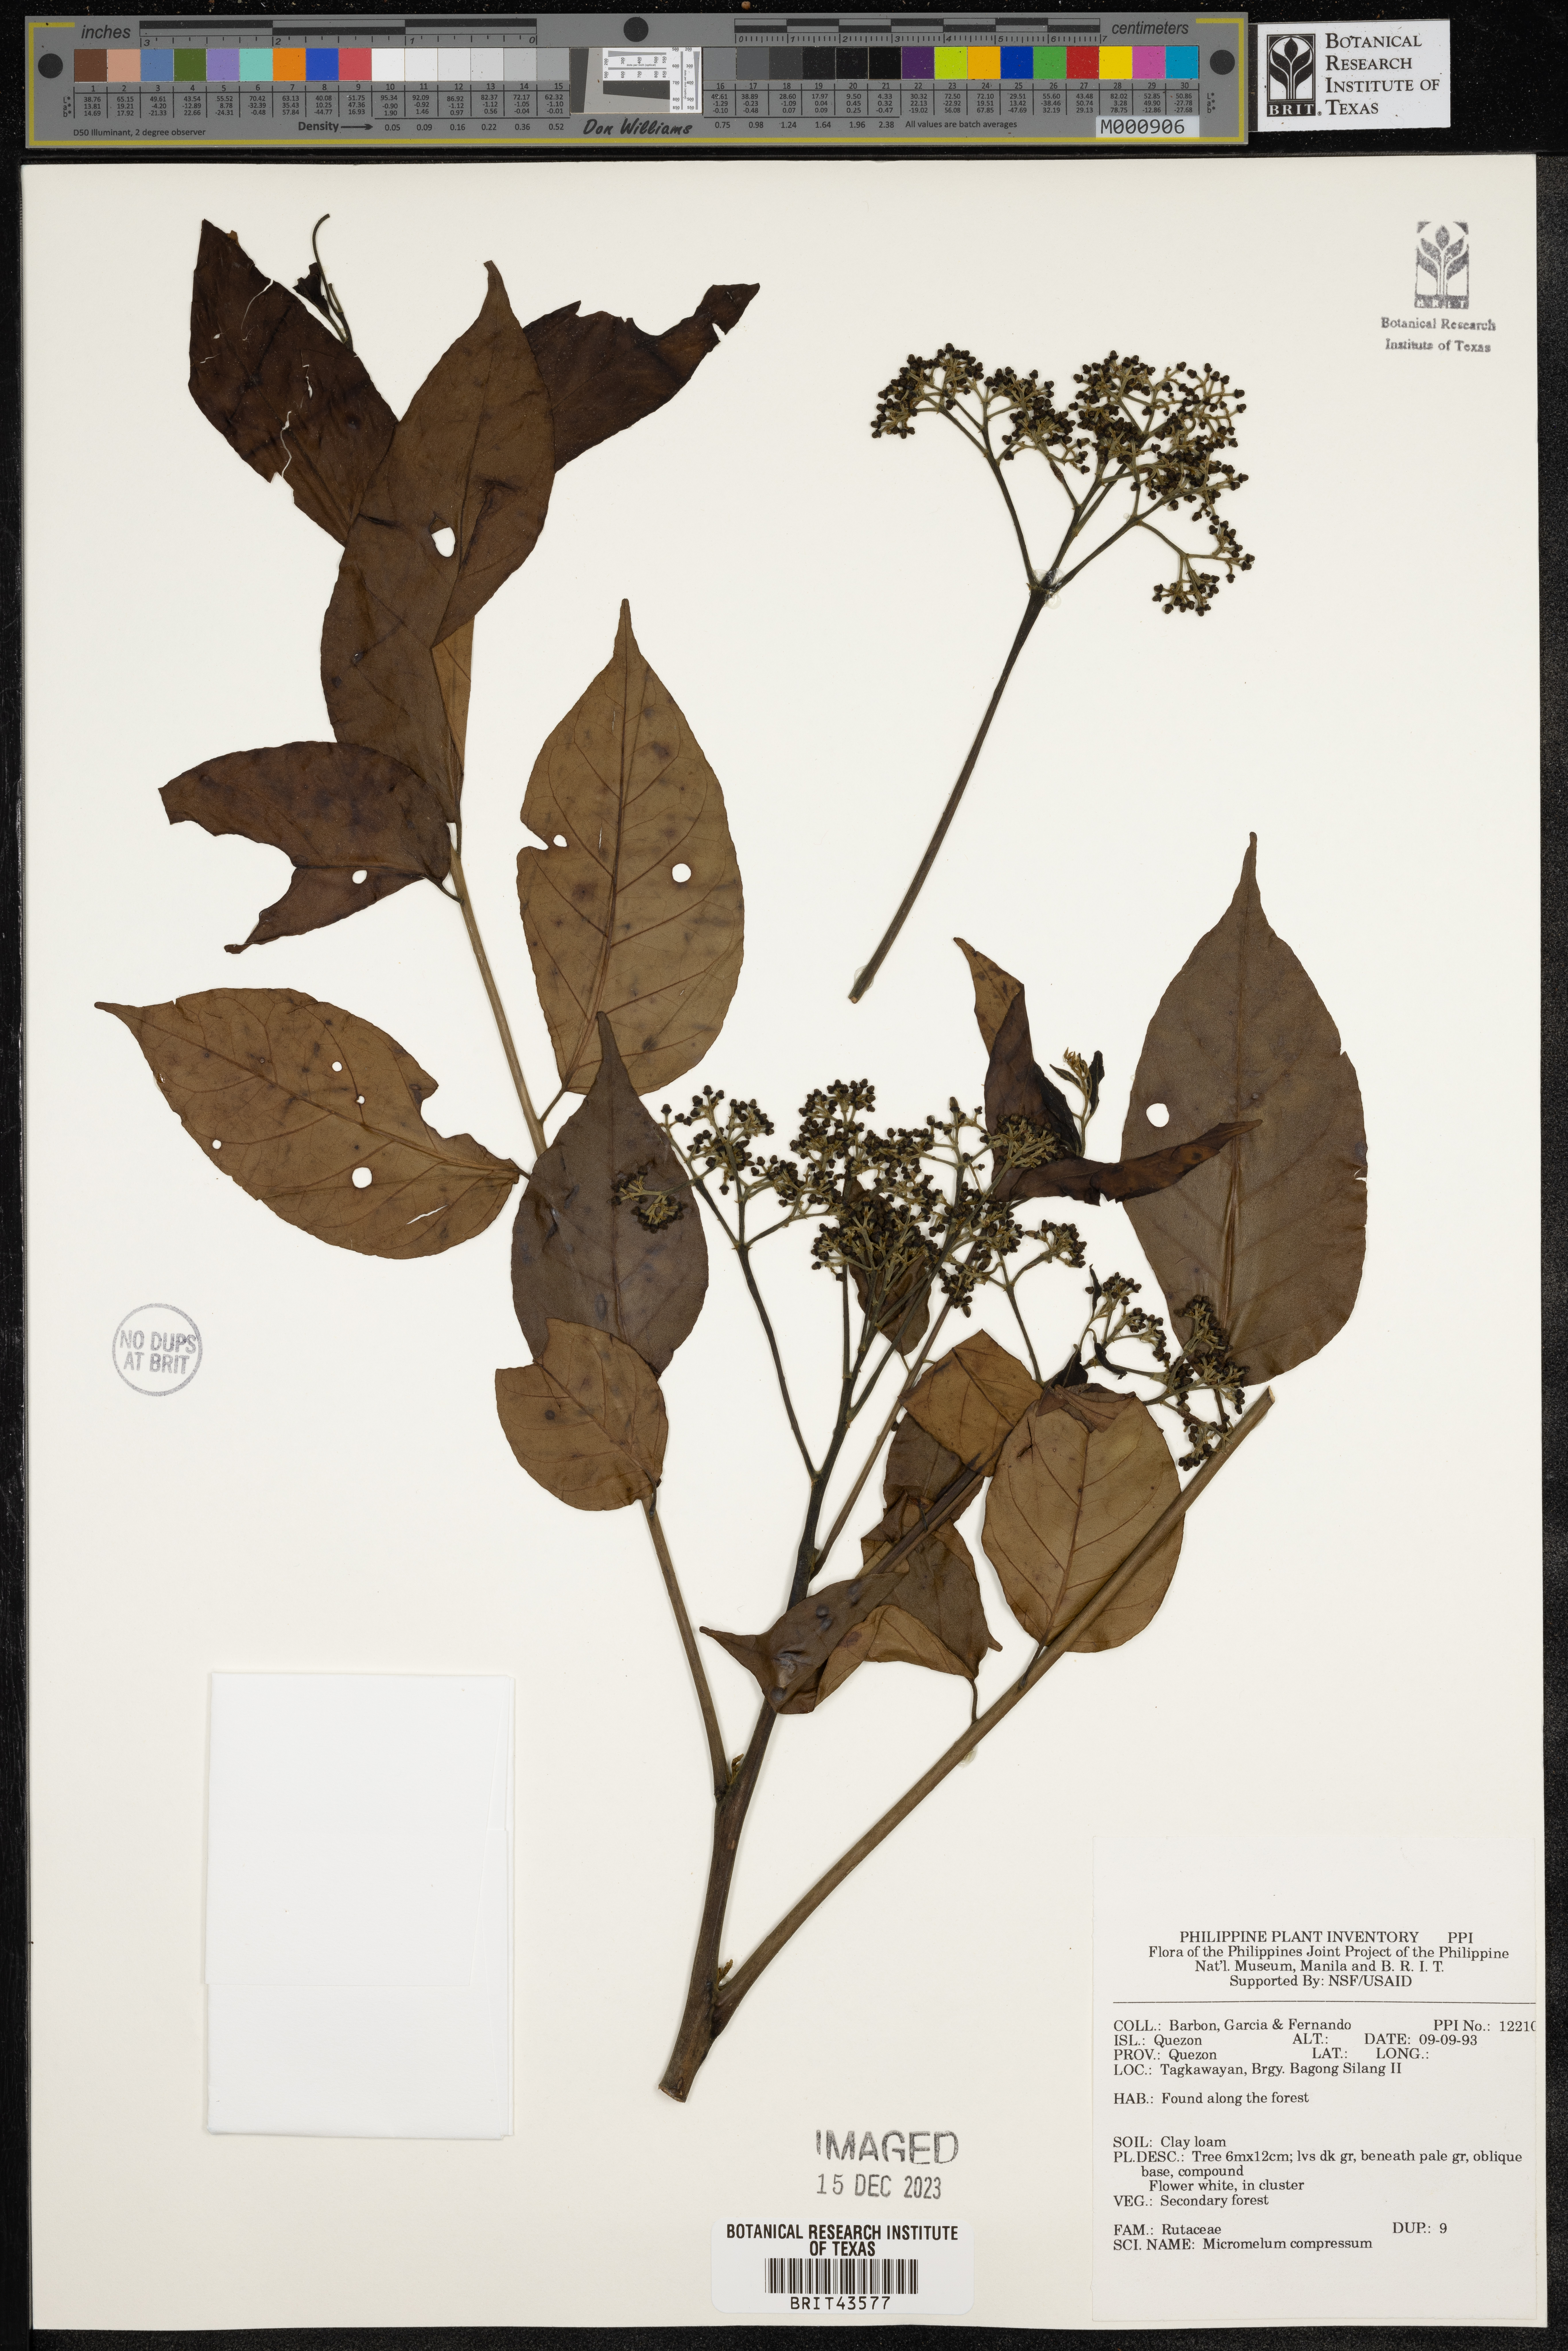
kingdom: Plantae
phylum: Tracheophyta
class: Magnoliopsida
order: Sapindales
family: Rutaceae
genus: Micromelum
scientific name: Micromelum compressum
